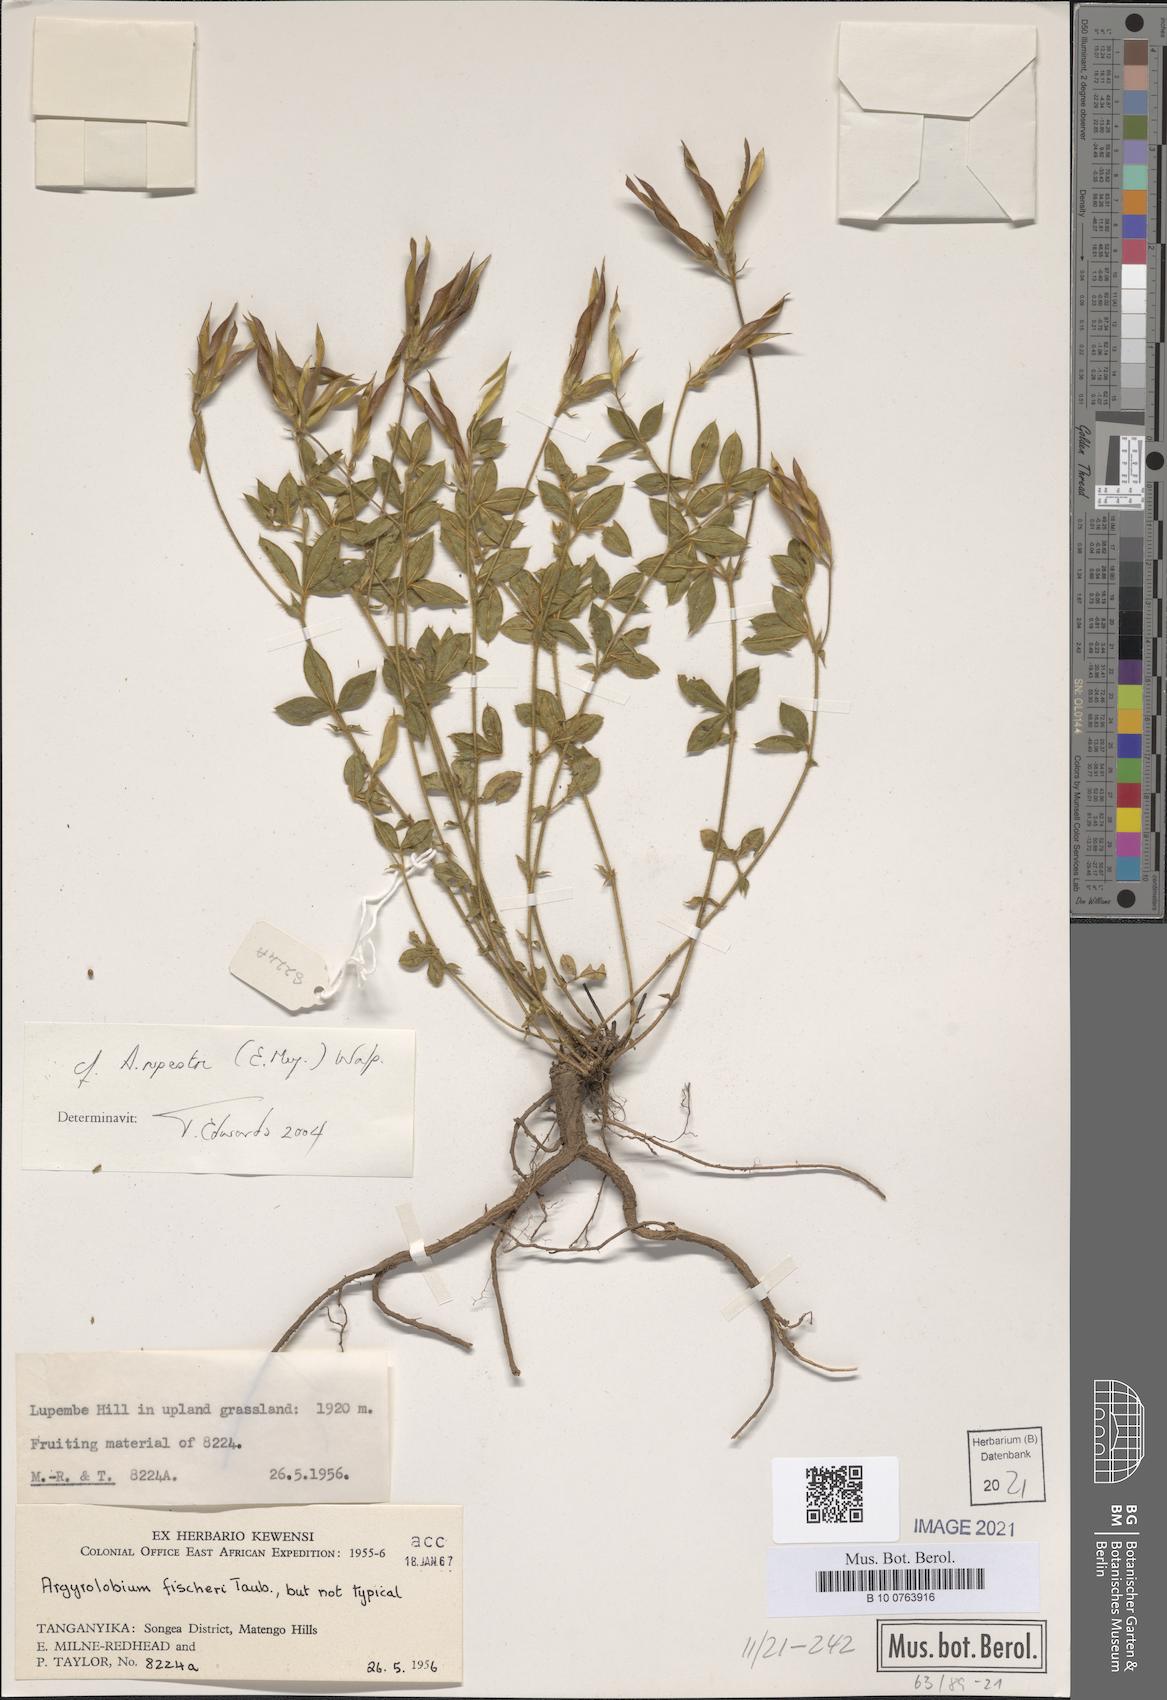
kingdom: Plantae
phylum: Tracheophyta
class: Magnoliopsida
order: Fabales
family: Fabaceae
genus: Argyrolobium
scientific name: Argyrolobium rupestre
